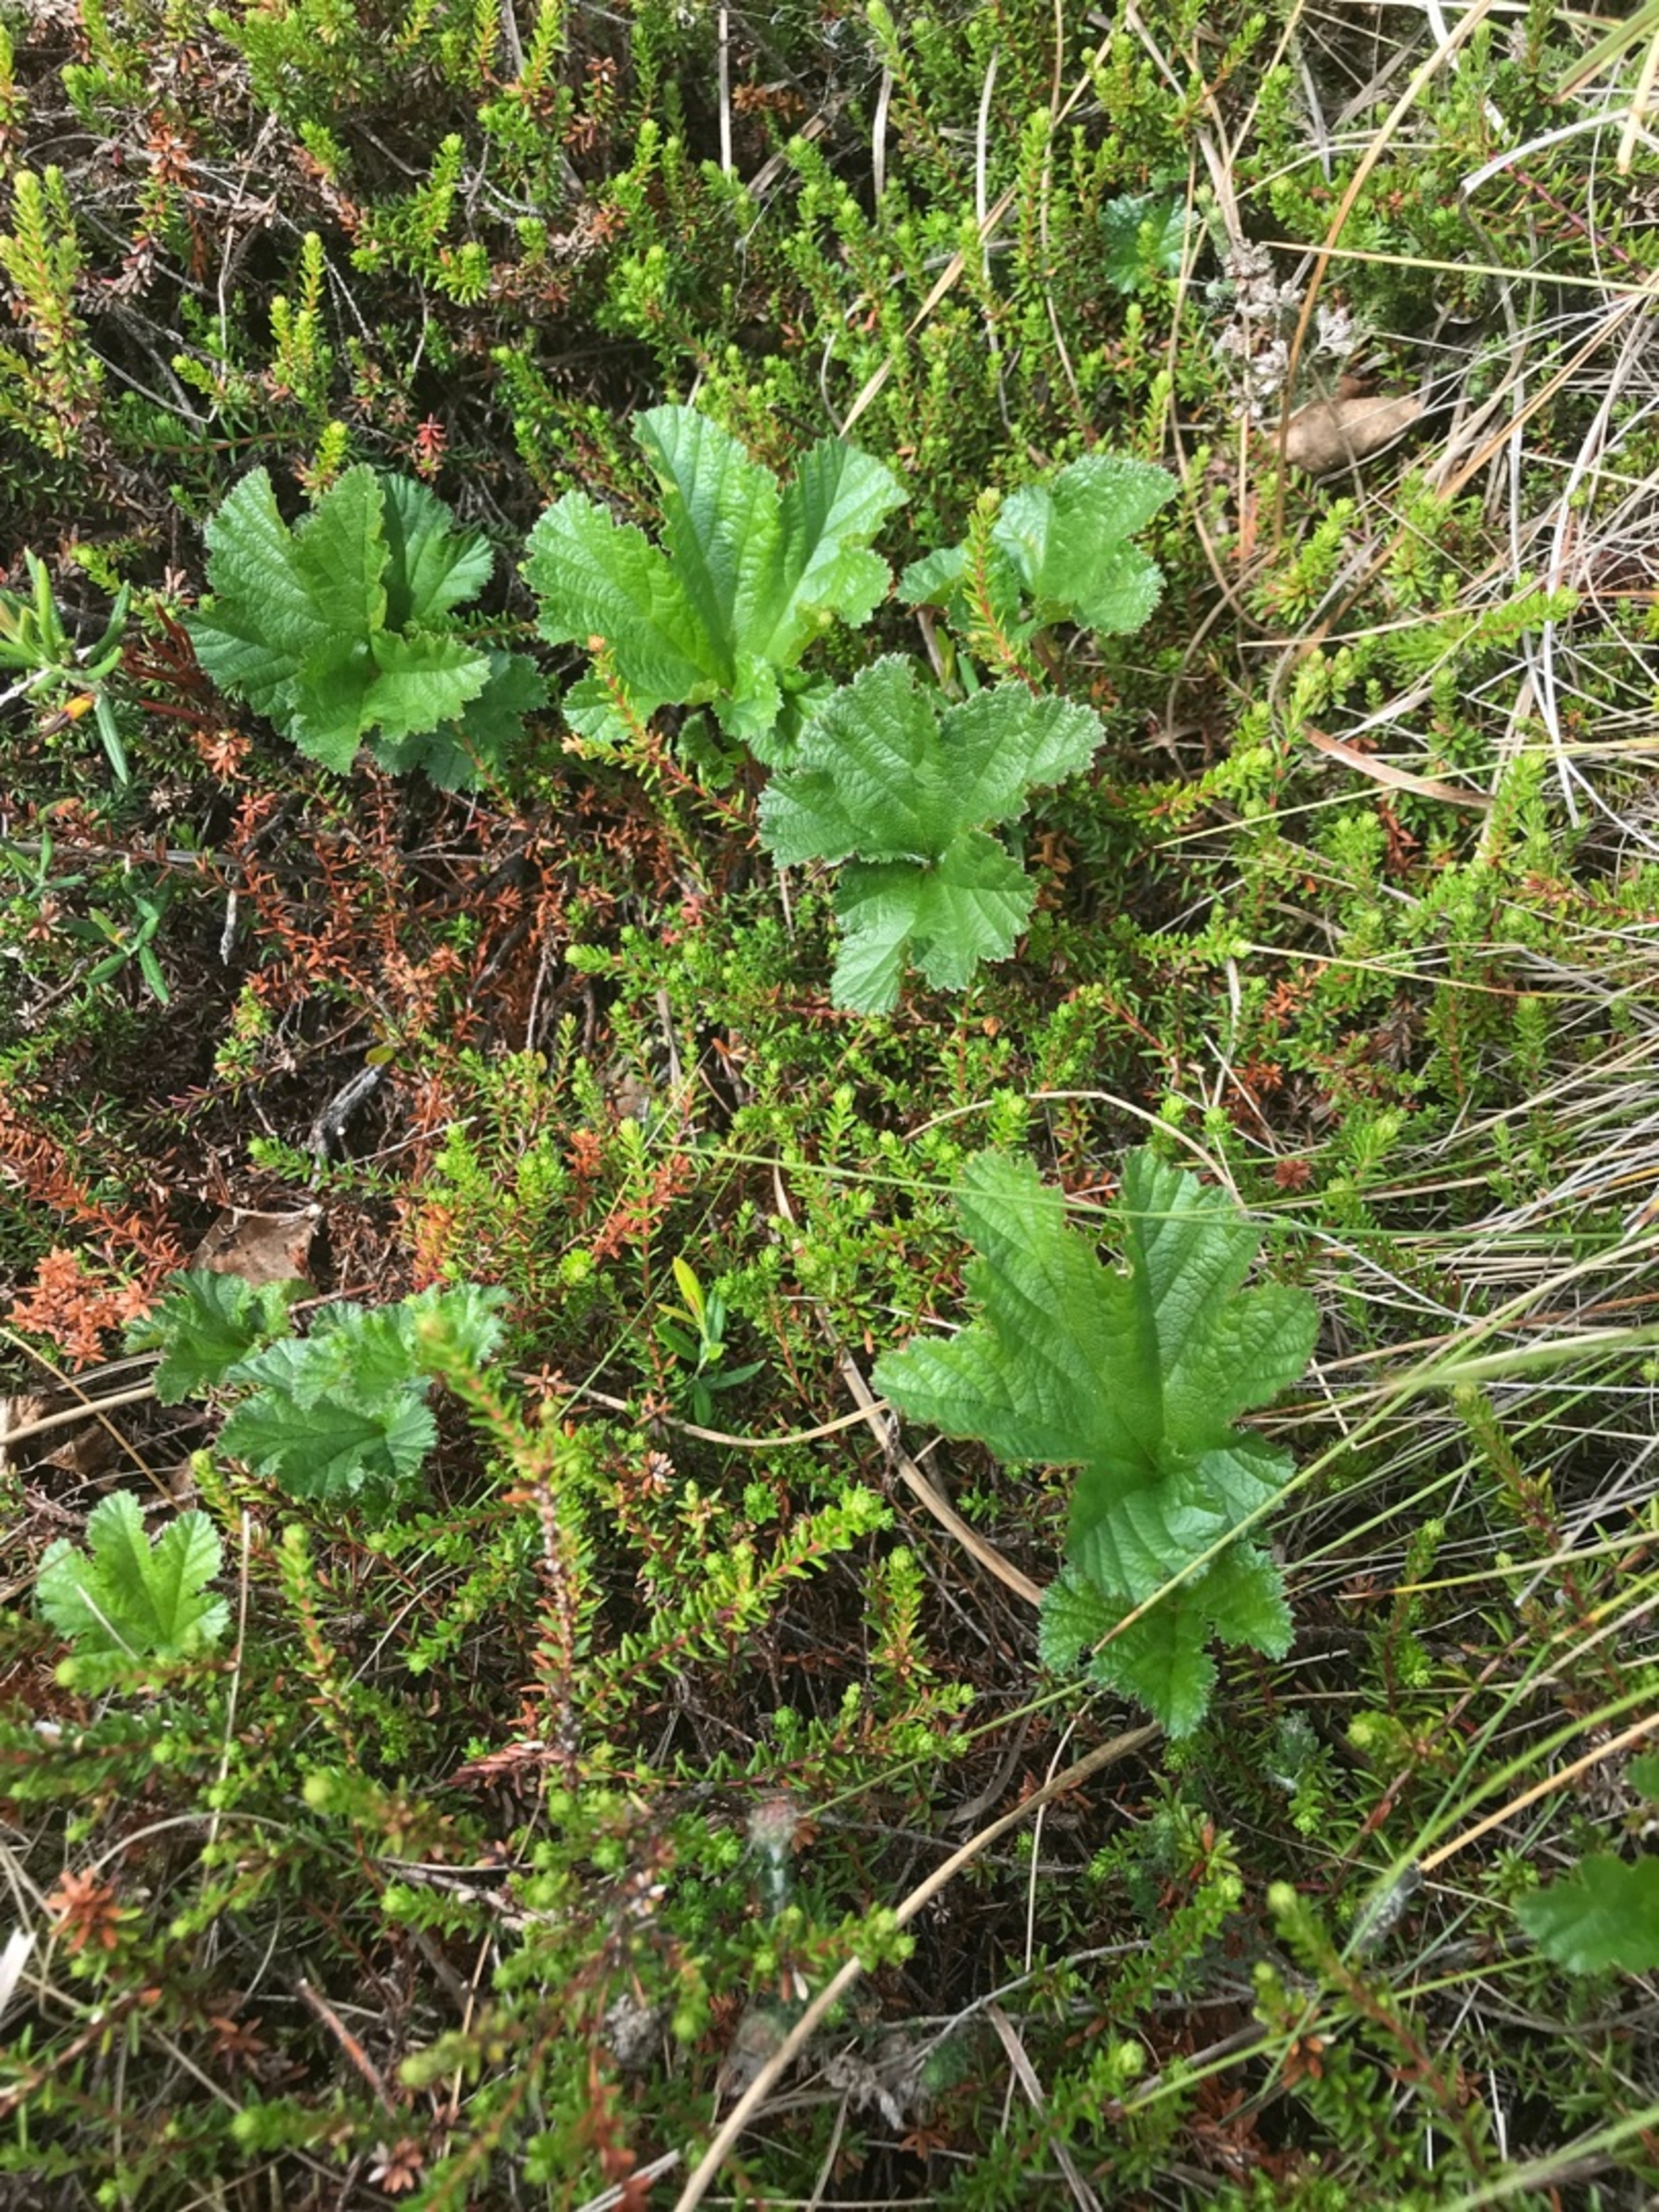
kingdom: Plantae
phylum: Tracheophyta
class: Magnoliopsida
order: Rosales
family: Rosaceae
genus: Rubus
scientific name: Rubus chamaemorus
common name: Multebær
